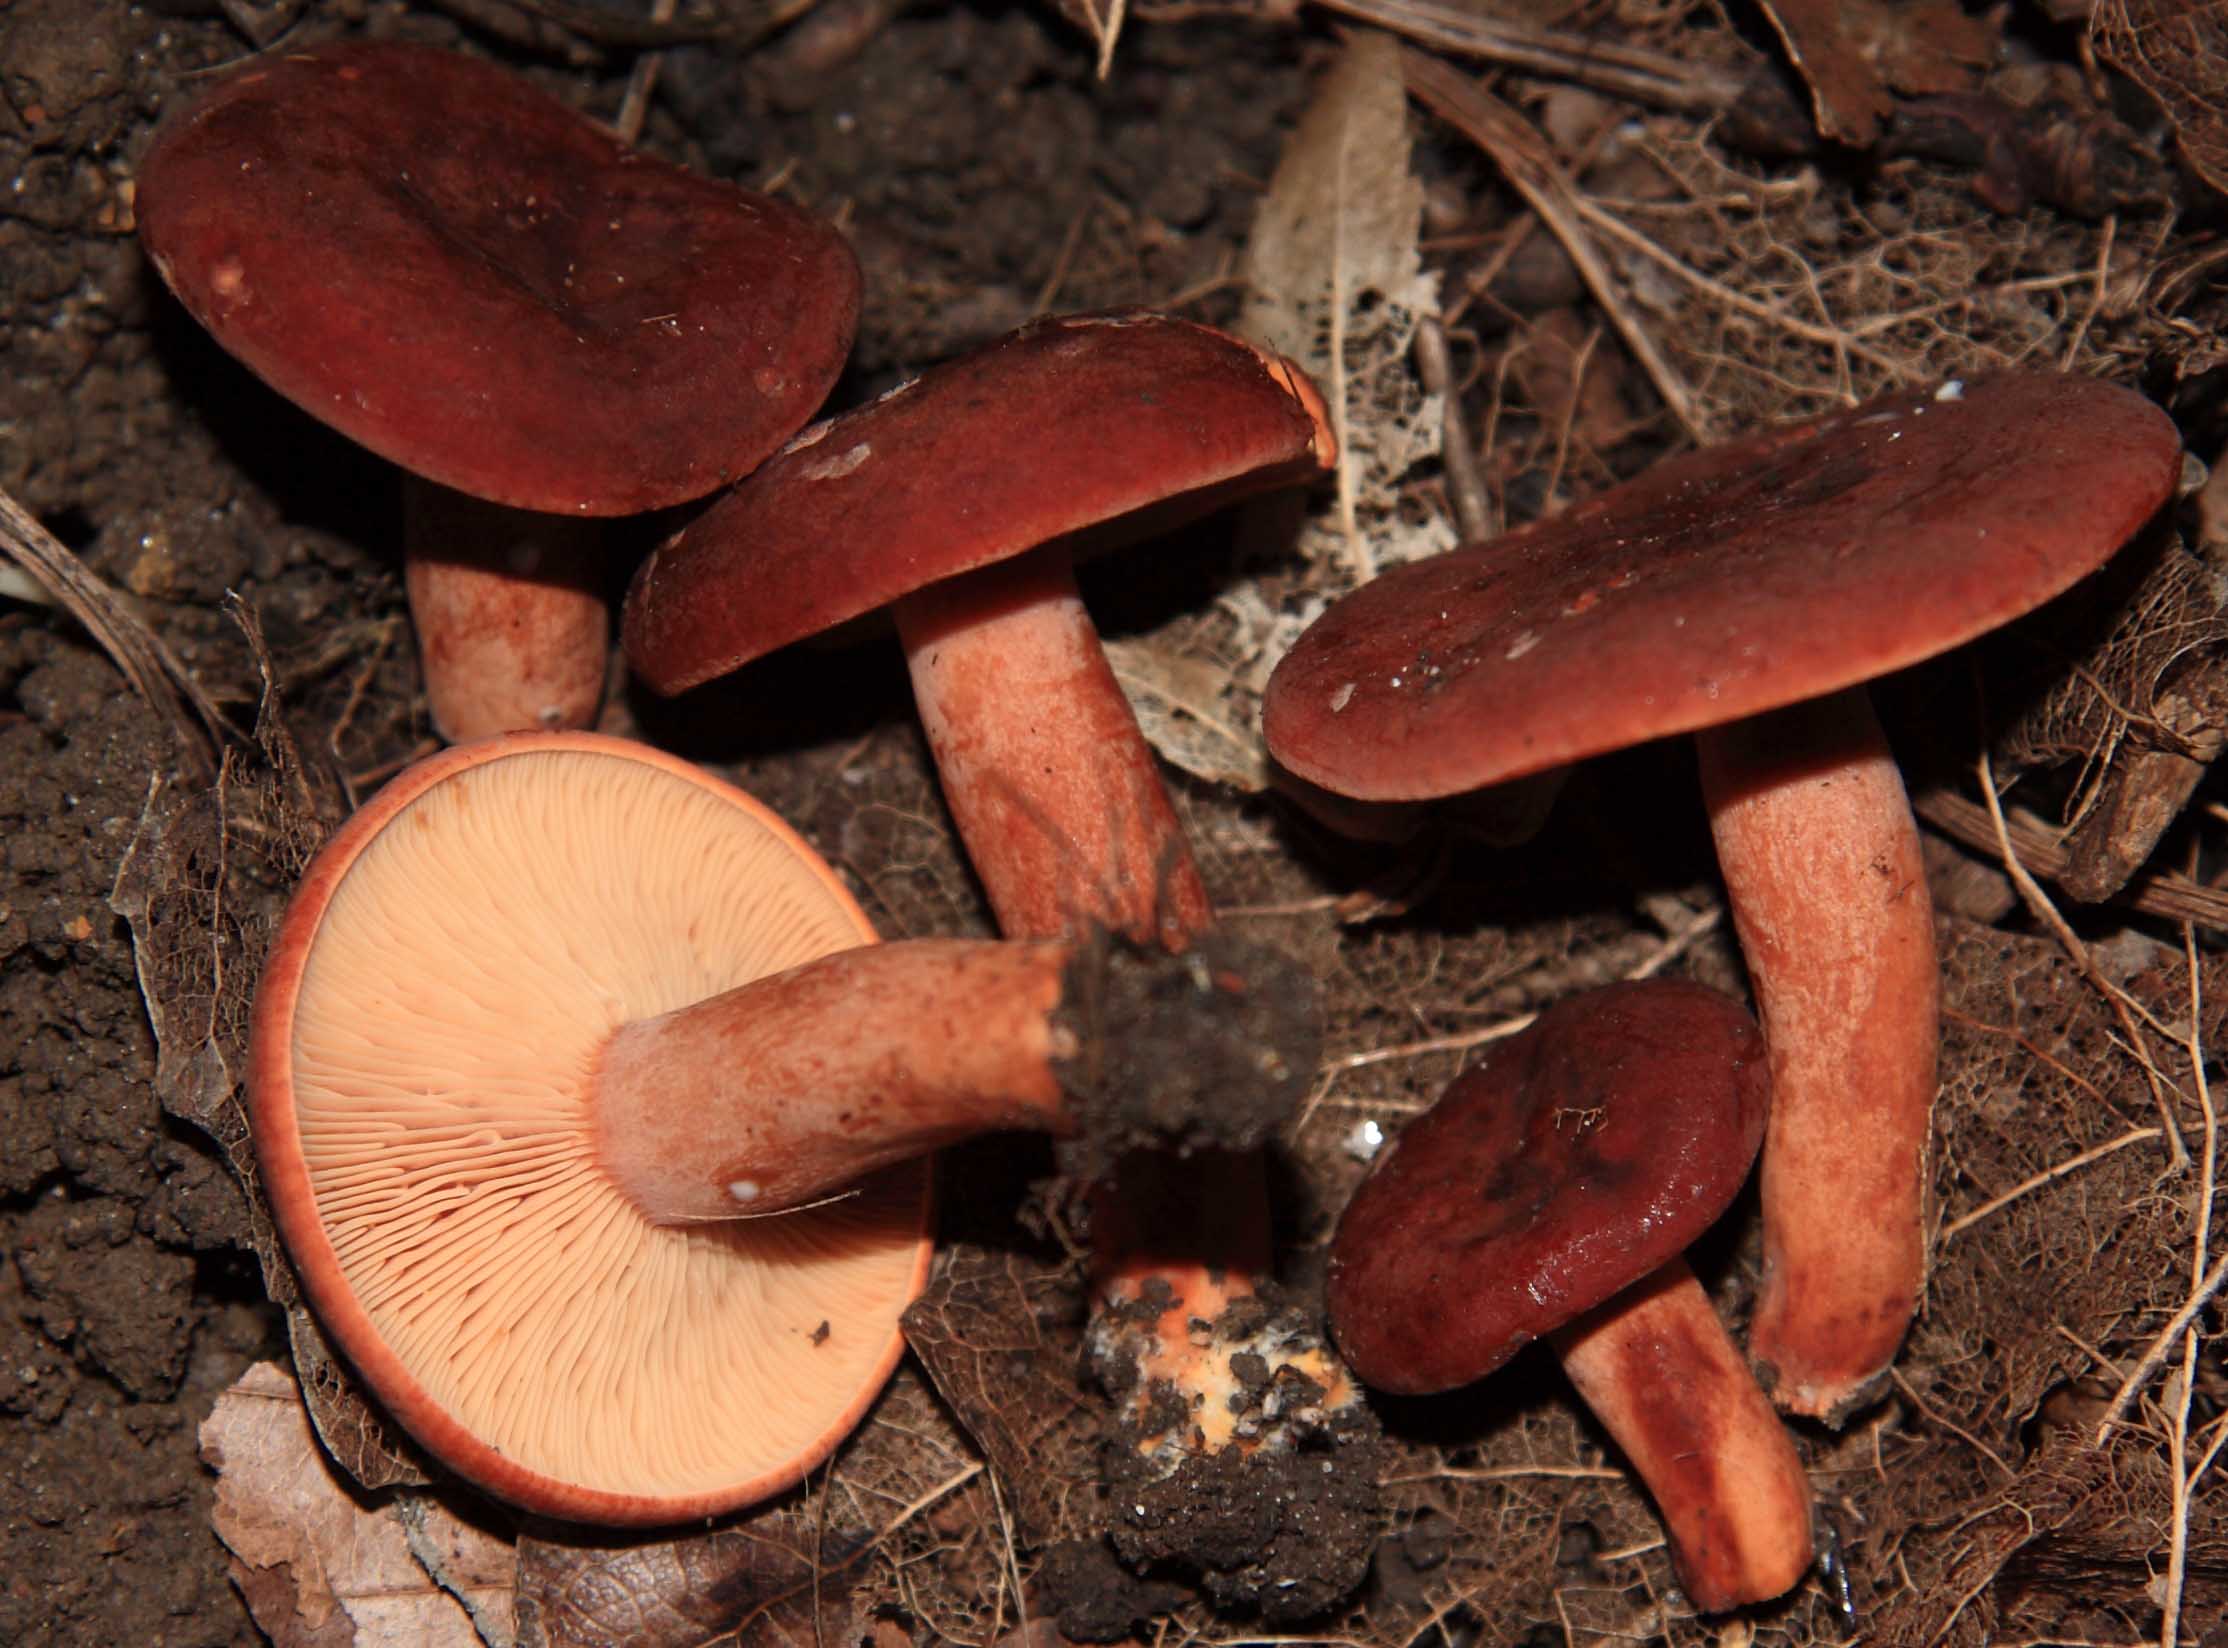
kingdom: Fungi
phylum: Basidiomycota
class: Agaricomycetes
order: Russulales
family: Russulaceae
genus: Lactarius
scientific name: Lactarius fulvissimus
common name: ræve-mælkehat
